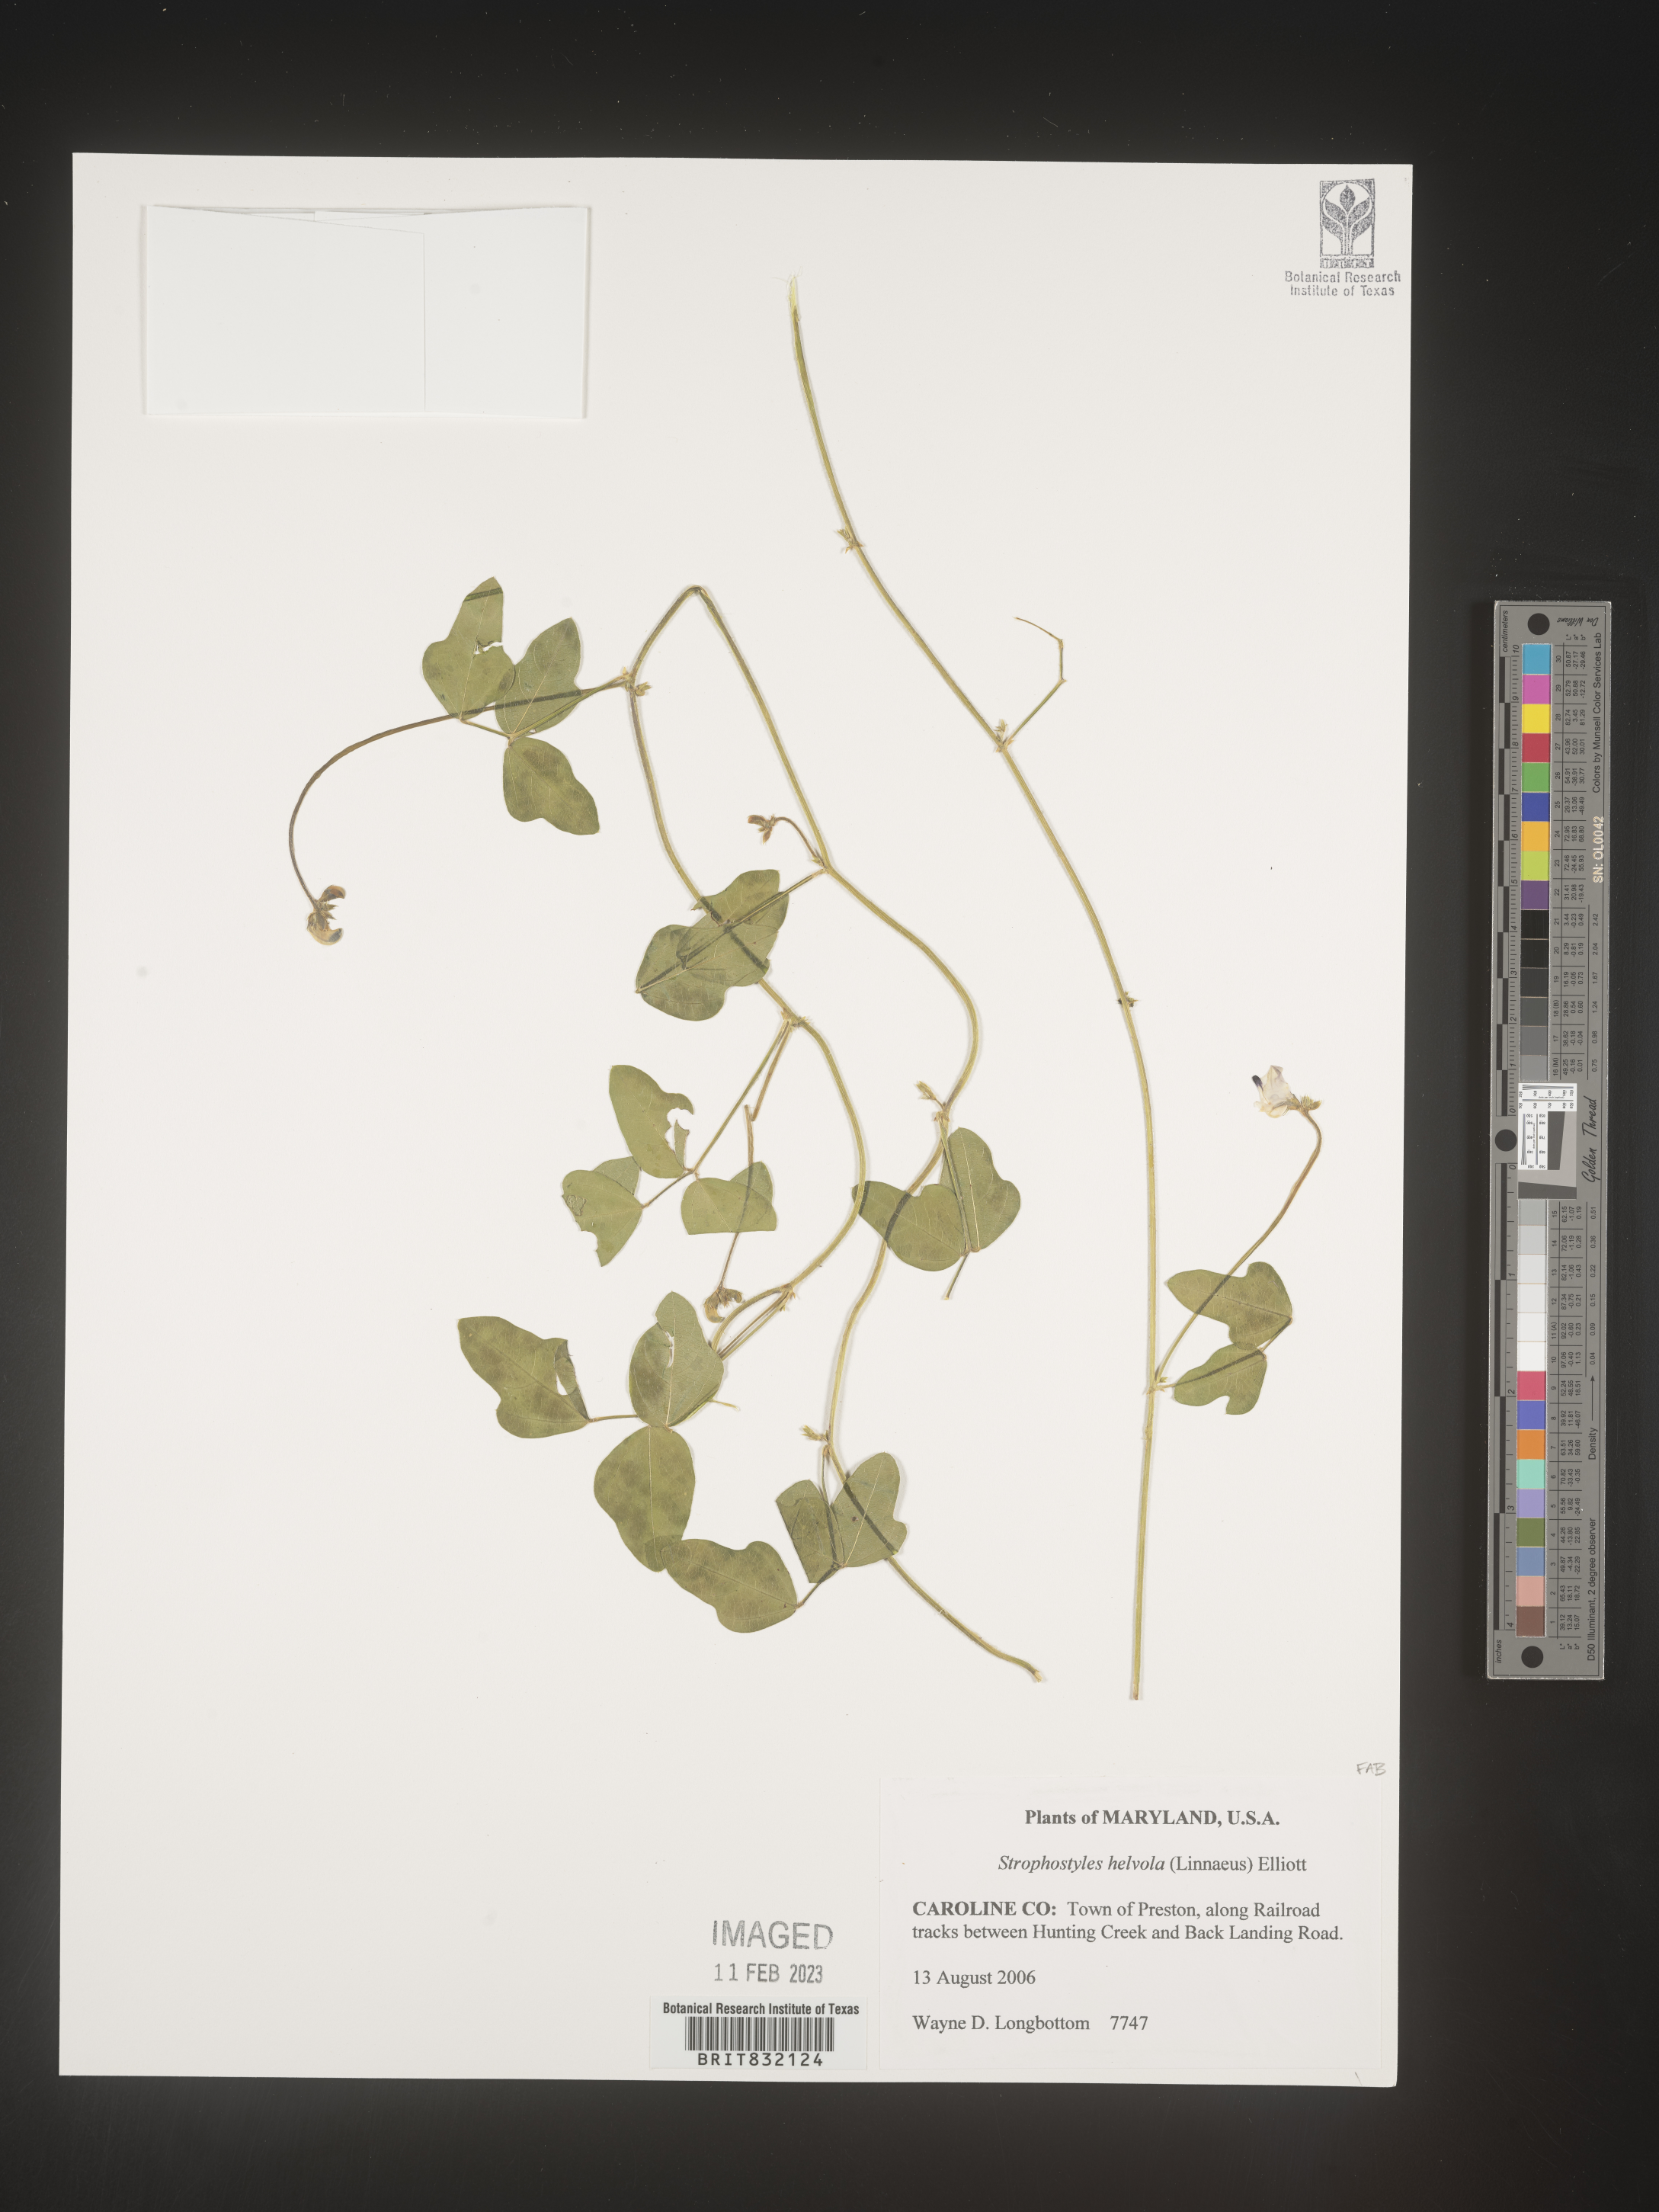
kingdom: Plantae
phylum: Tracheophyta
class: Magnoliopsida
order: Fabales
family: Fabaceae
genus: Strophostyles
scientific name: Strophostyles helvola
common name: Trailing wild bean
